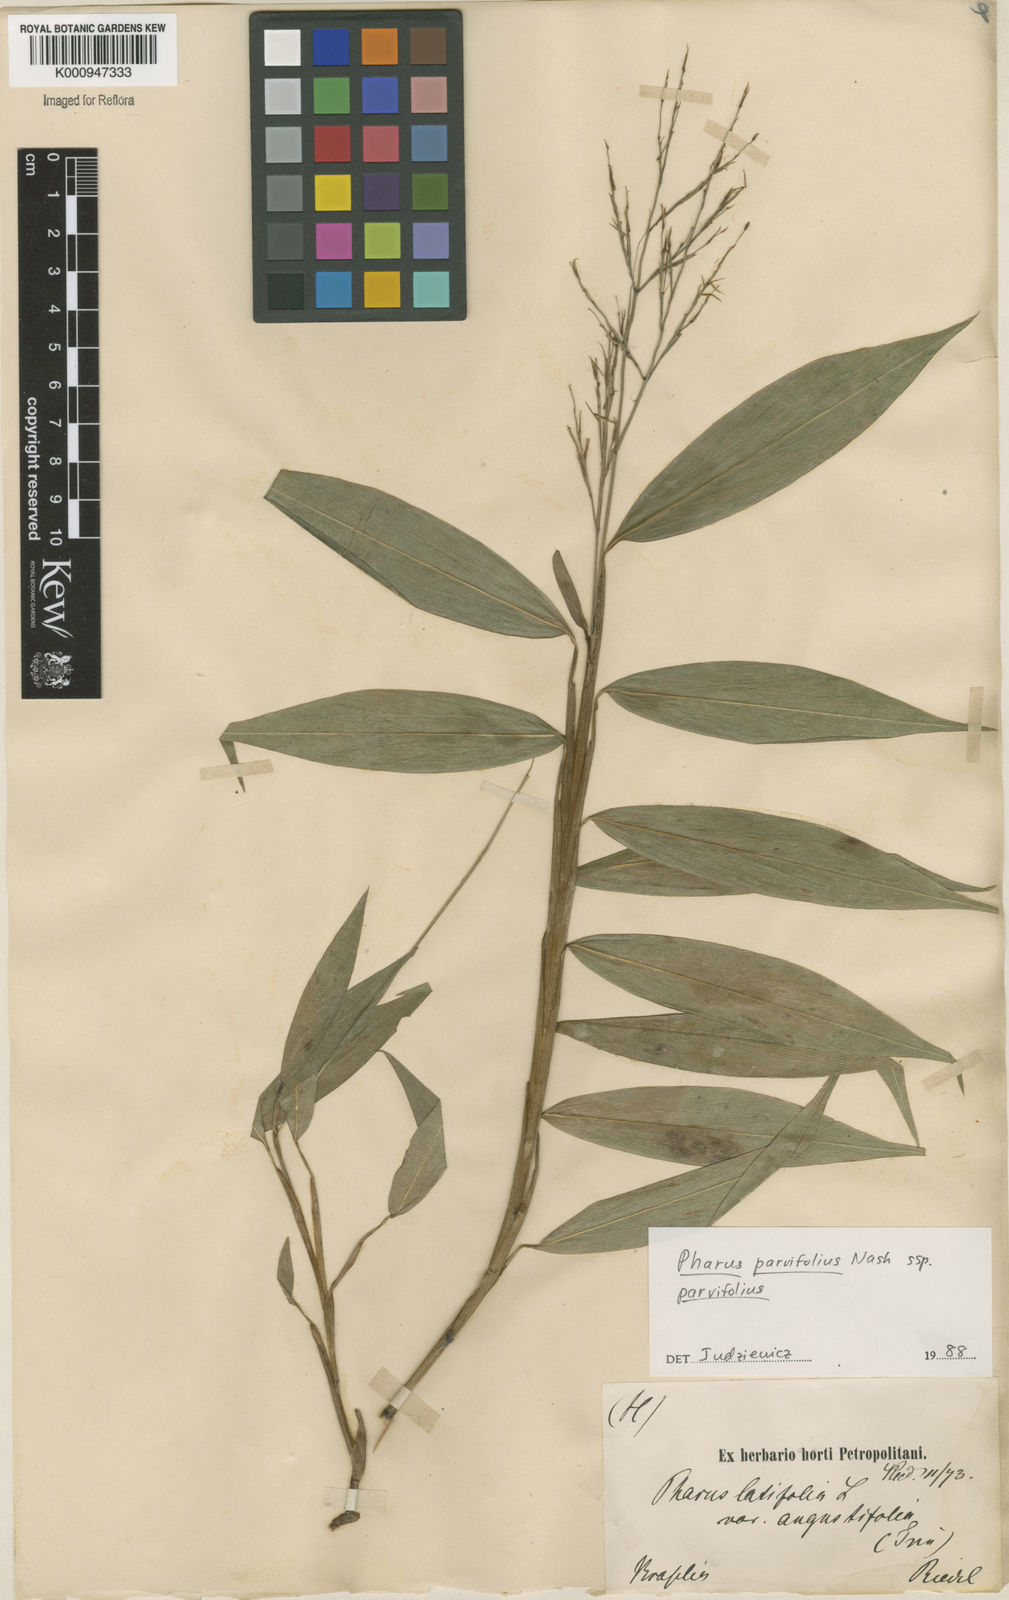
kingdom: Plantae
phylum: Tracheophyta
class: Liliopsida
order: Poales
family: Poaceae
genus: Pharus
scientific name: Pharus parvifolius
